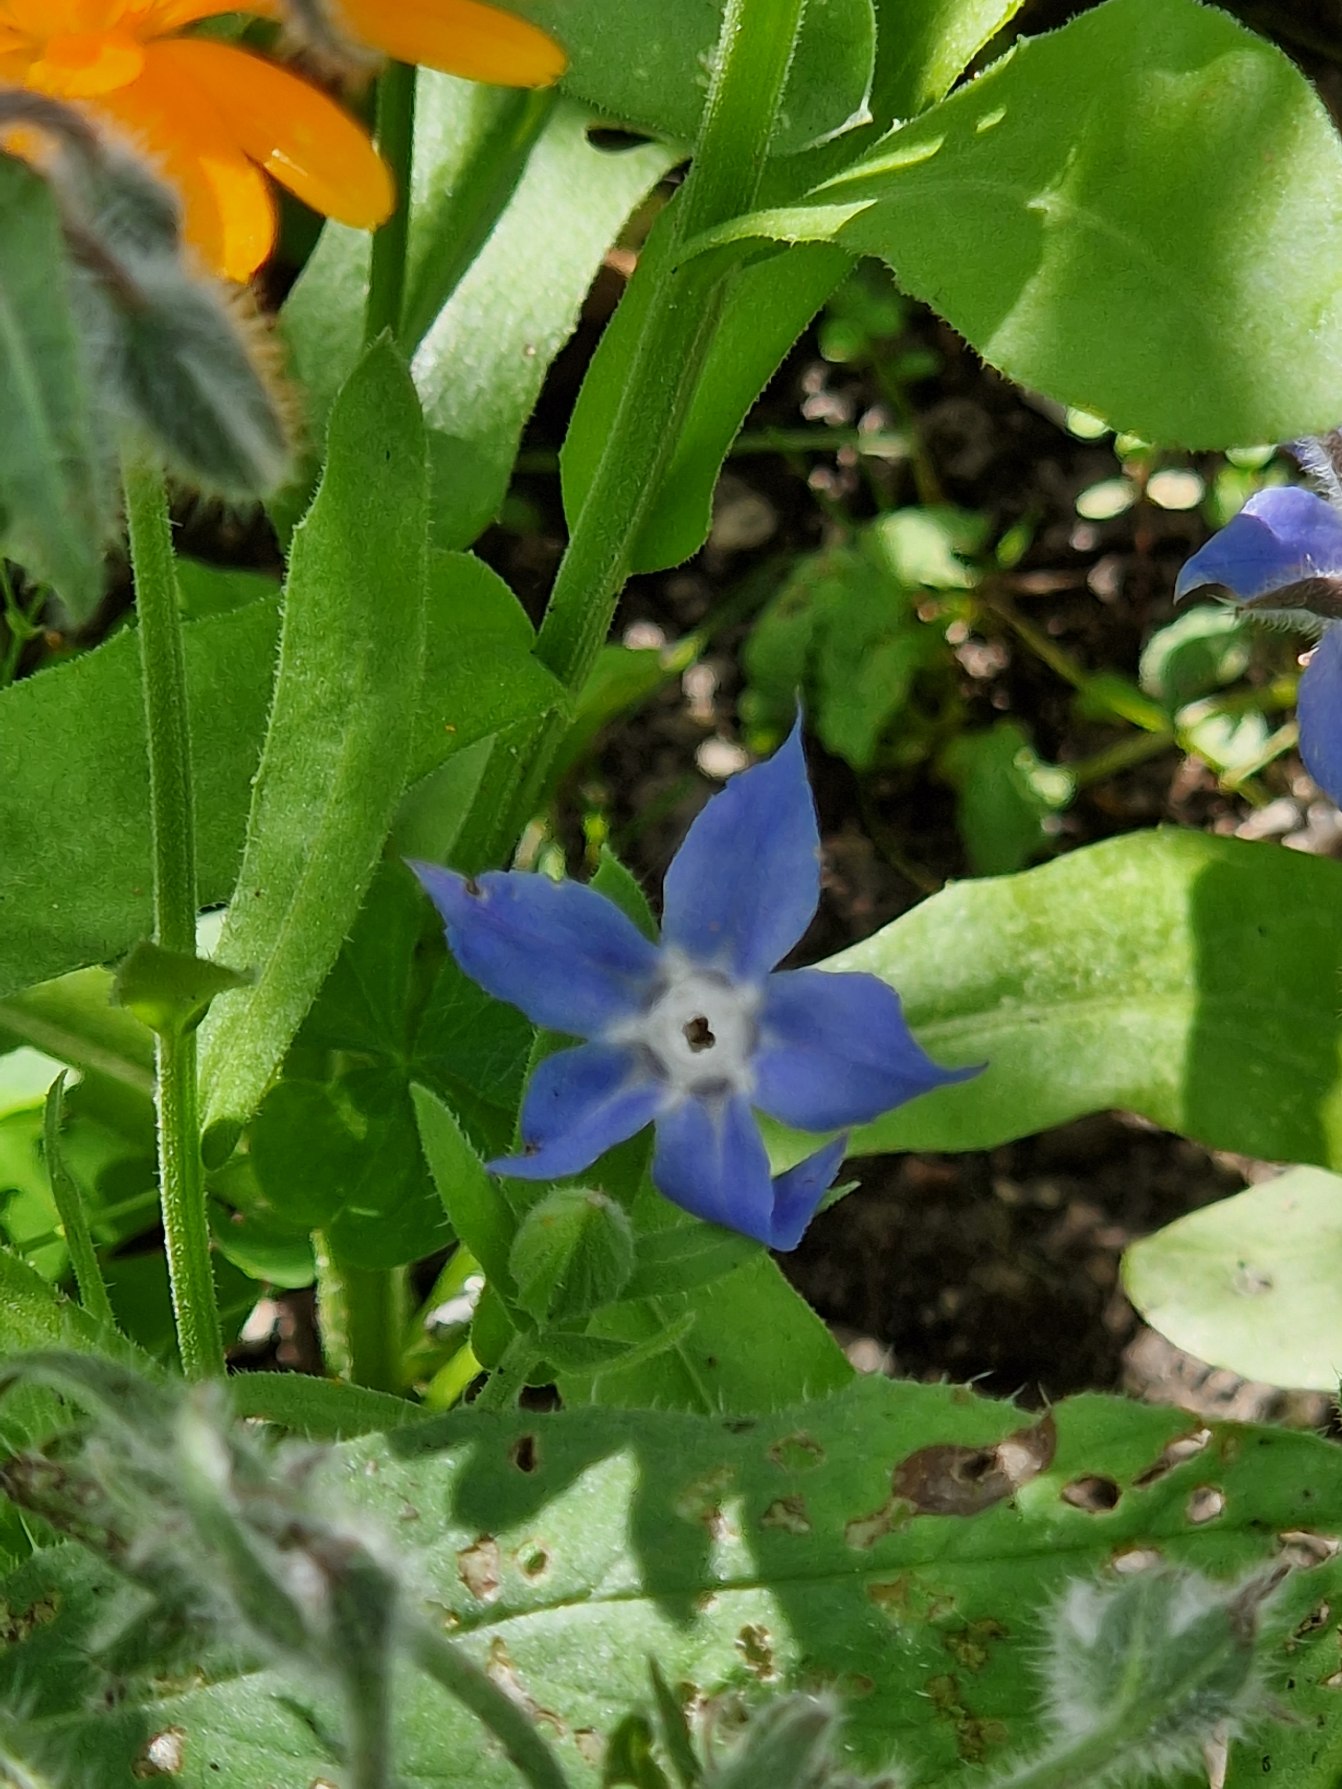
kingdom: Plantae
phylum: Tracheophyta
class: Magnoliopsida
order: Boraginales
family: Boraginaceae
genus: Borago
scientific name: Borago officinalis
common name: Hjulkrone
